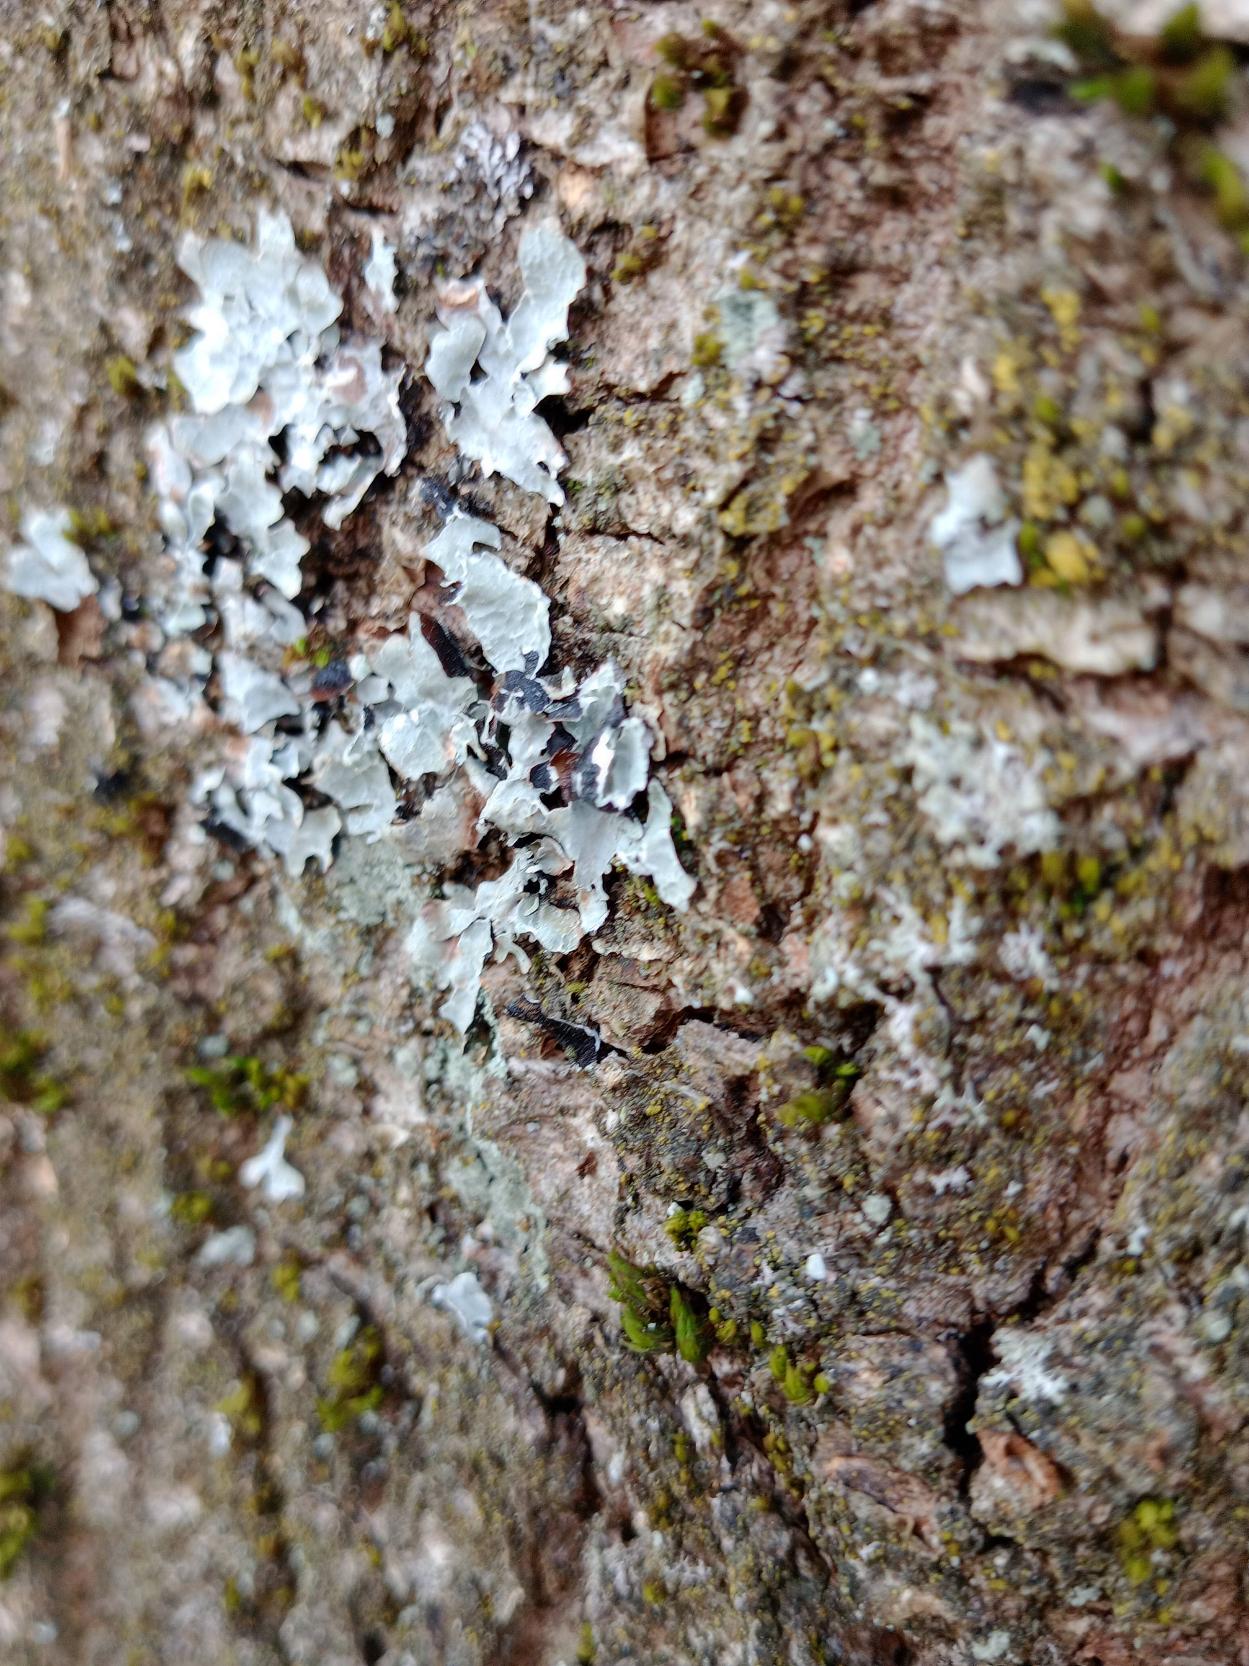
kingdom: Fungi
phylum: Ascomycota
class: Lecanoromycetes
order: Lecanorales
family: Parmeliaceae
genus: Parmelia
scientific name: Parmelia sulcata
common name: Rynket skållav
